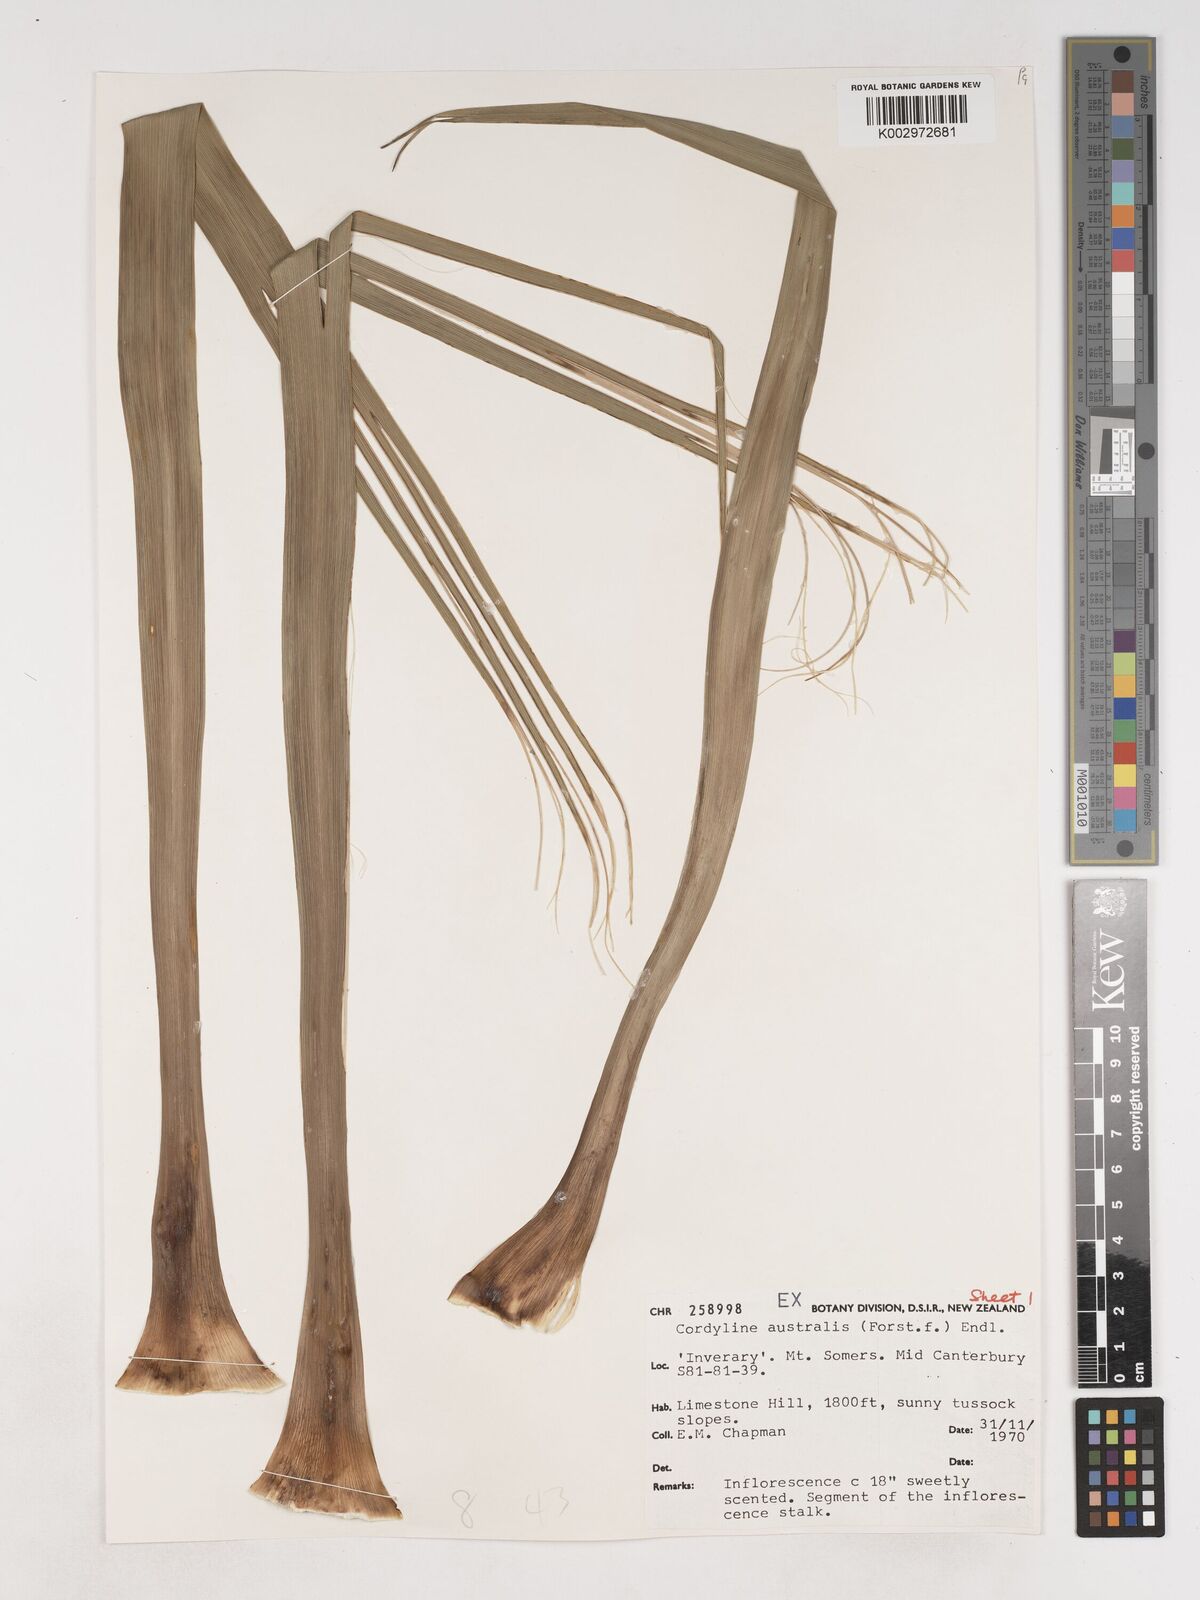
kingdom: Plantae
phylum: Tracheophyta
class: Liliopsida
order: Asparagales
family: Asparagaceae
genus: Cordyline
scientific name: Cordyline australis
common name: Cabbage-palm
